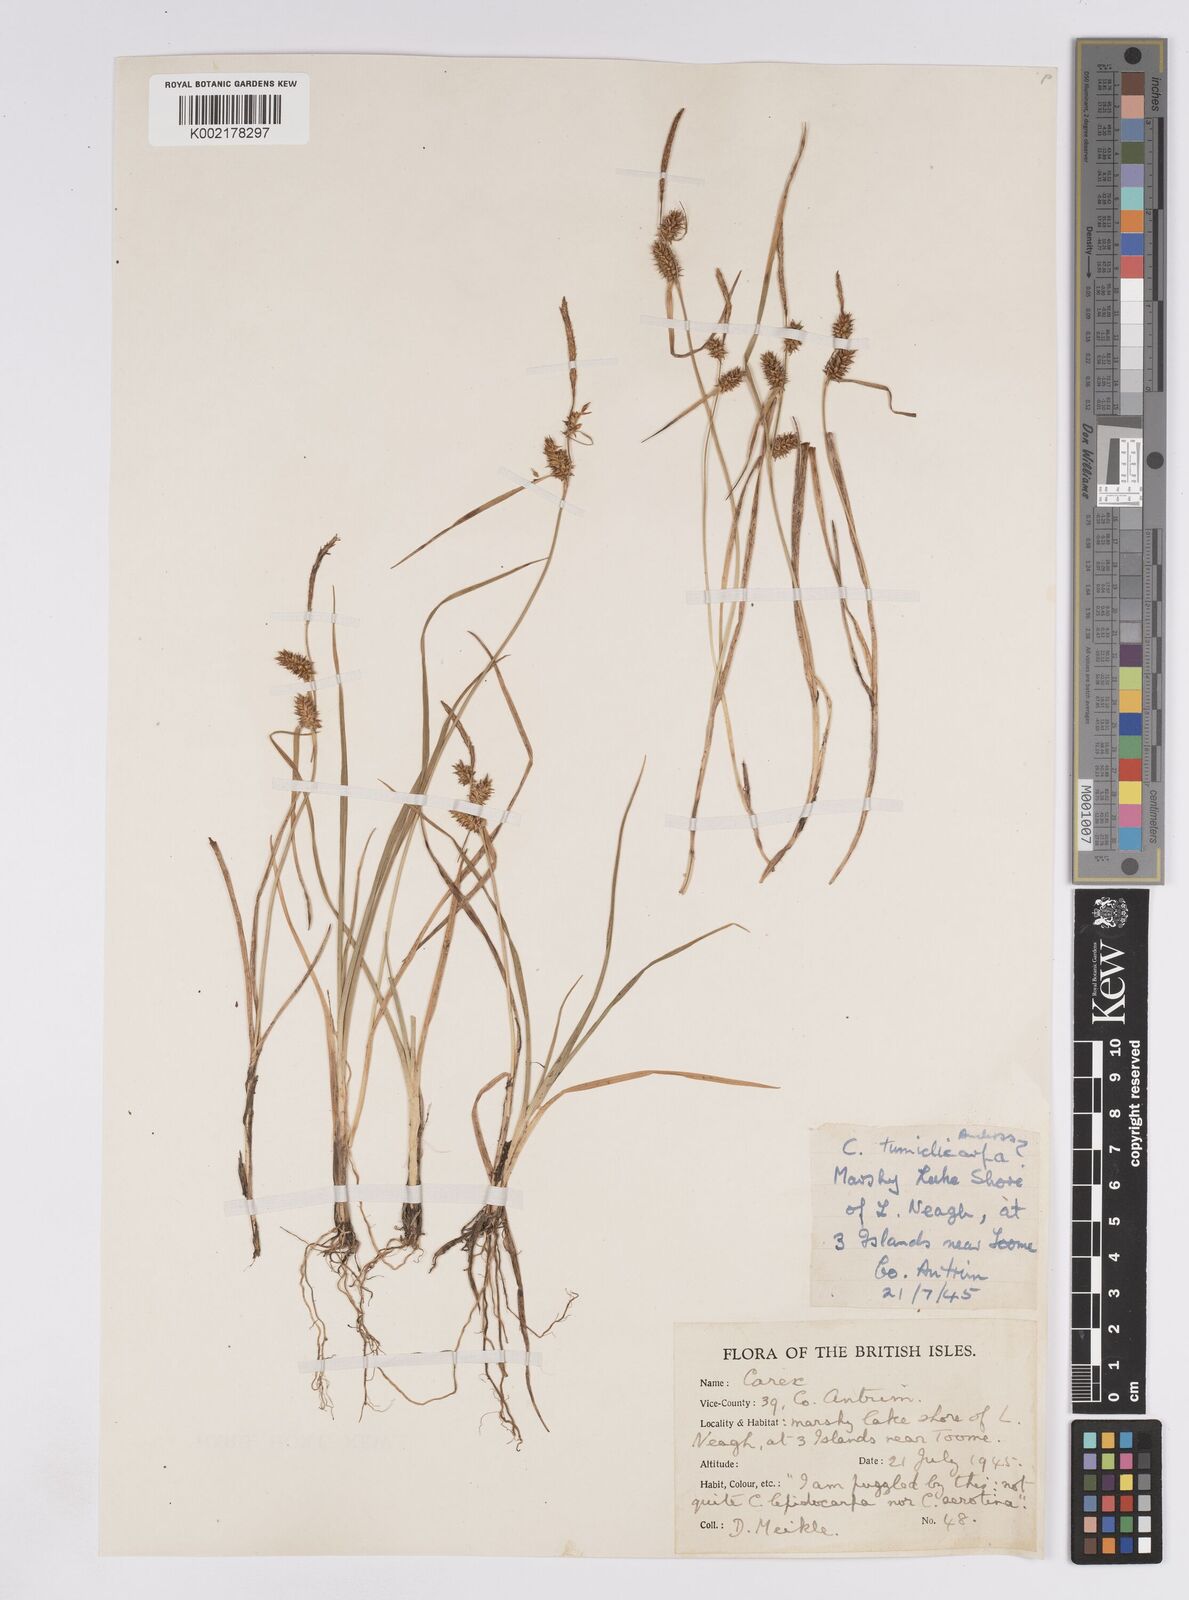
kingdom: Plantae
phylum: Tracheophyta
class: Liliopsida
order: Poales
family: Cyperaceae
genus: Carex
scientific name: Carex demissa
